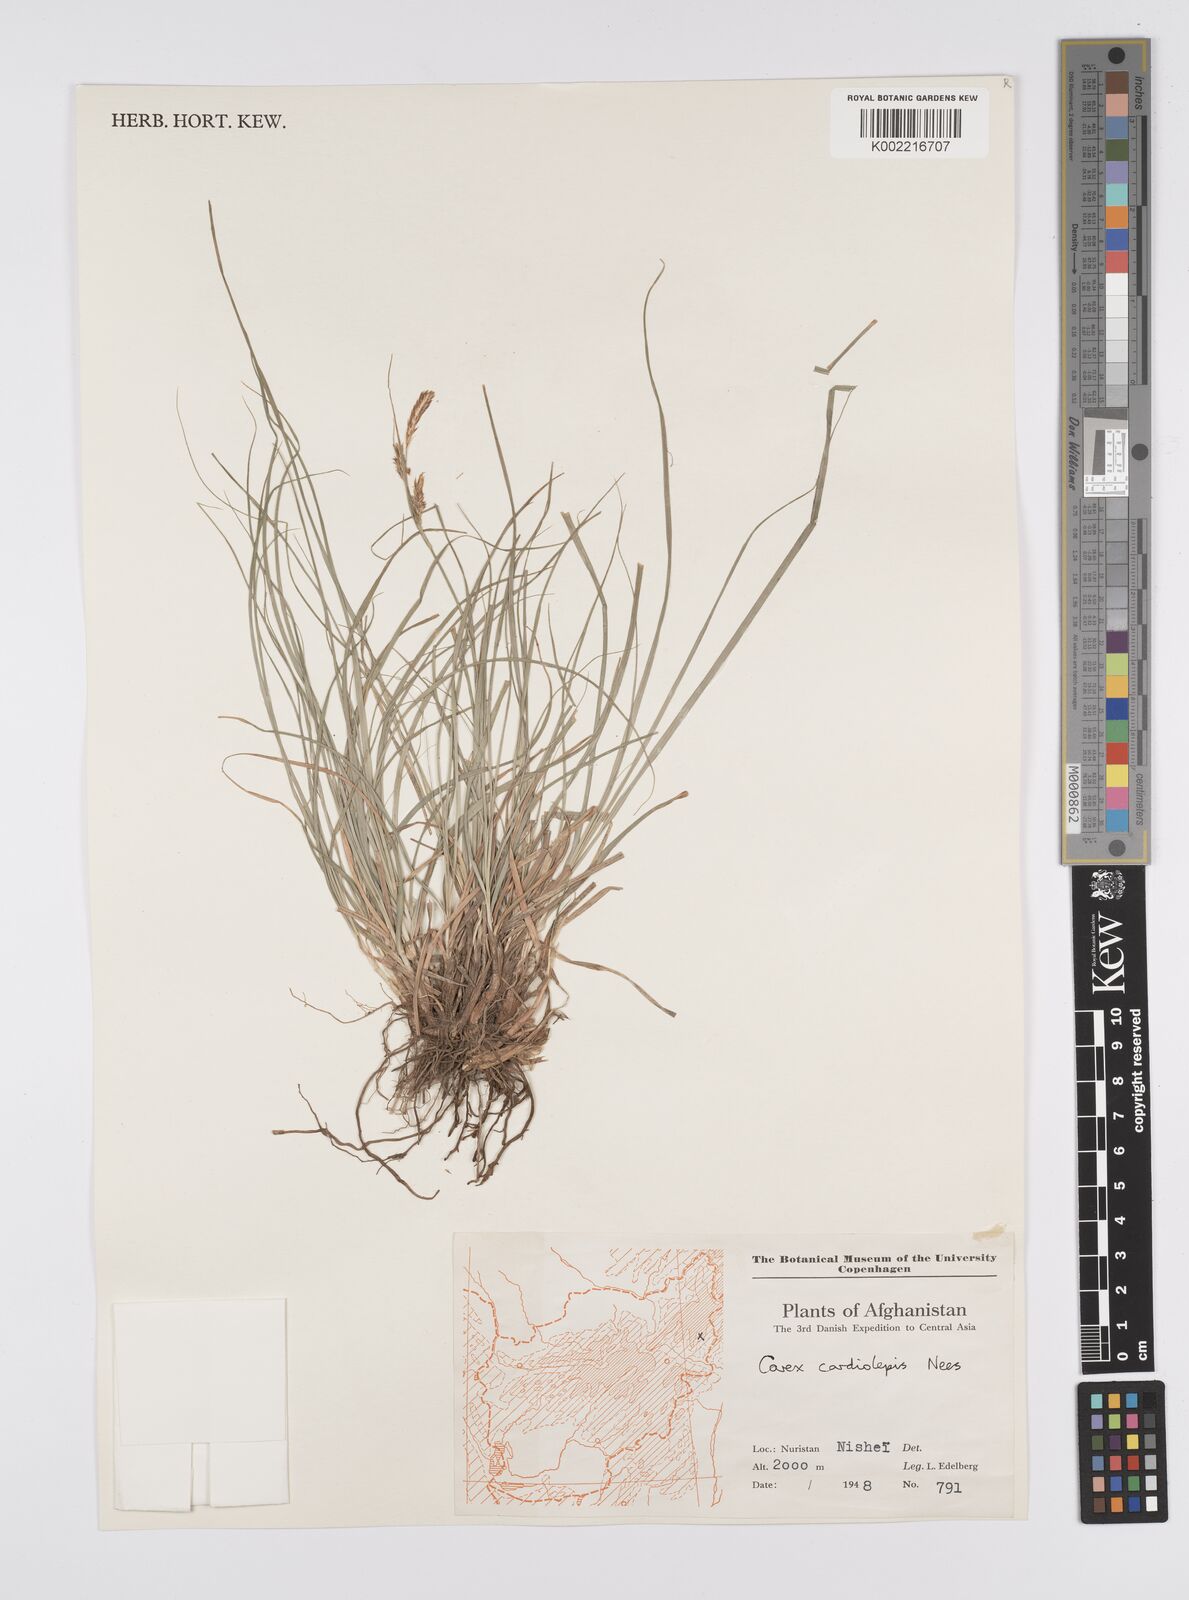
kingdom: Plantae
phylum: Tracheophyta
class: Liliopsida
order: Poales
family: Cyperaceae
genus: Carex
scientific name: Carex cardiolepis
